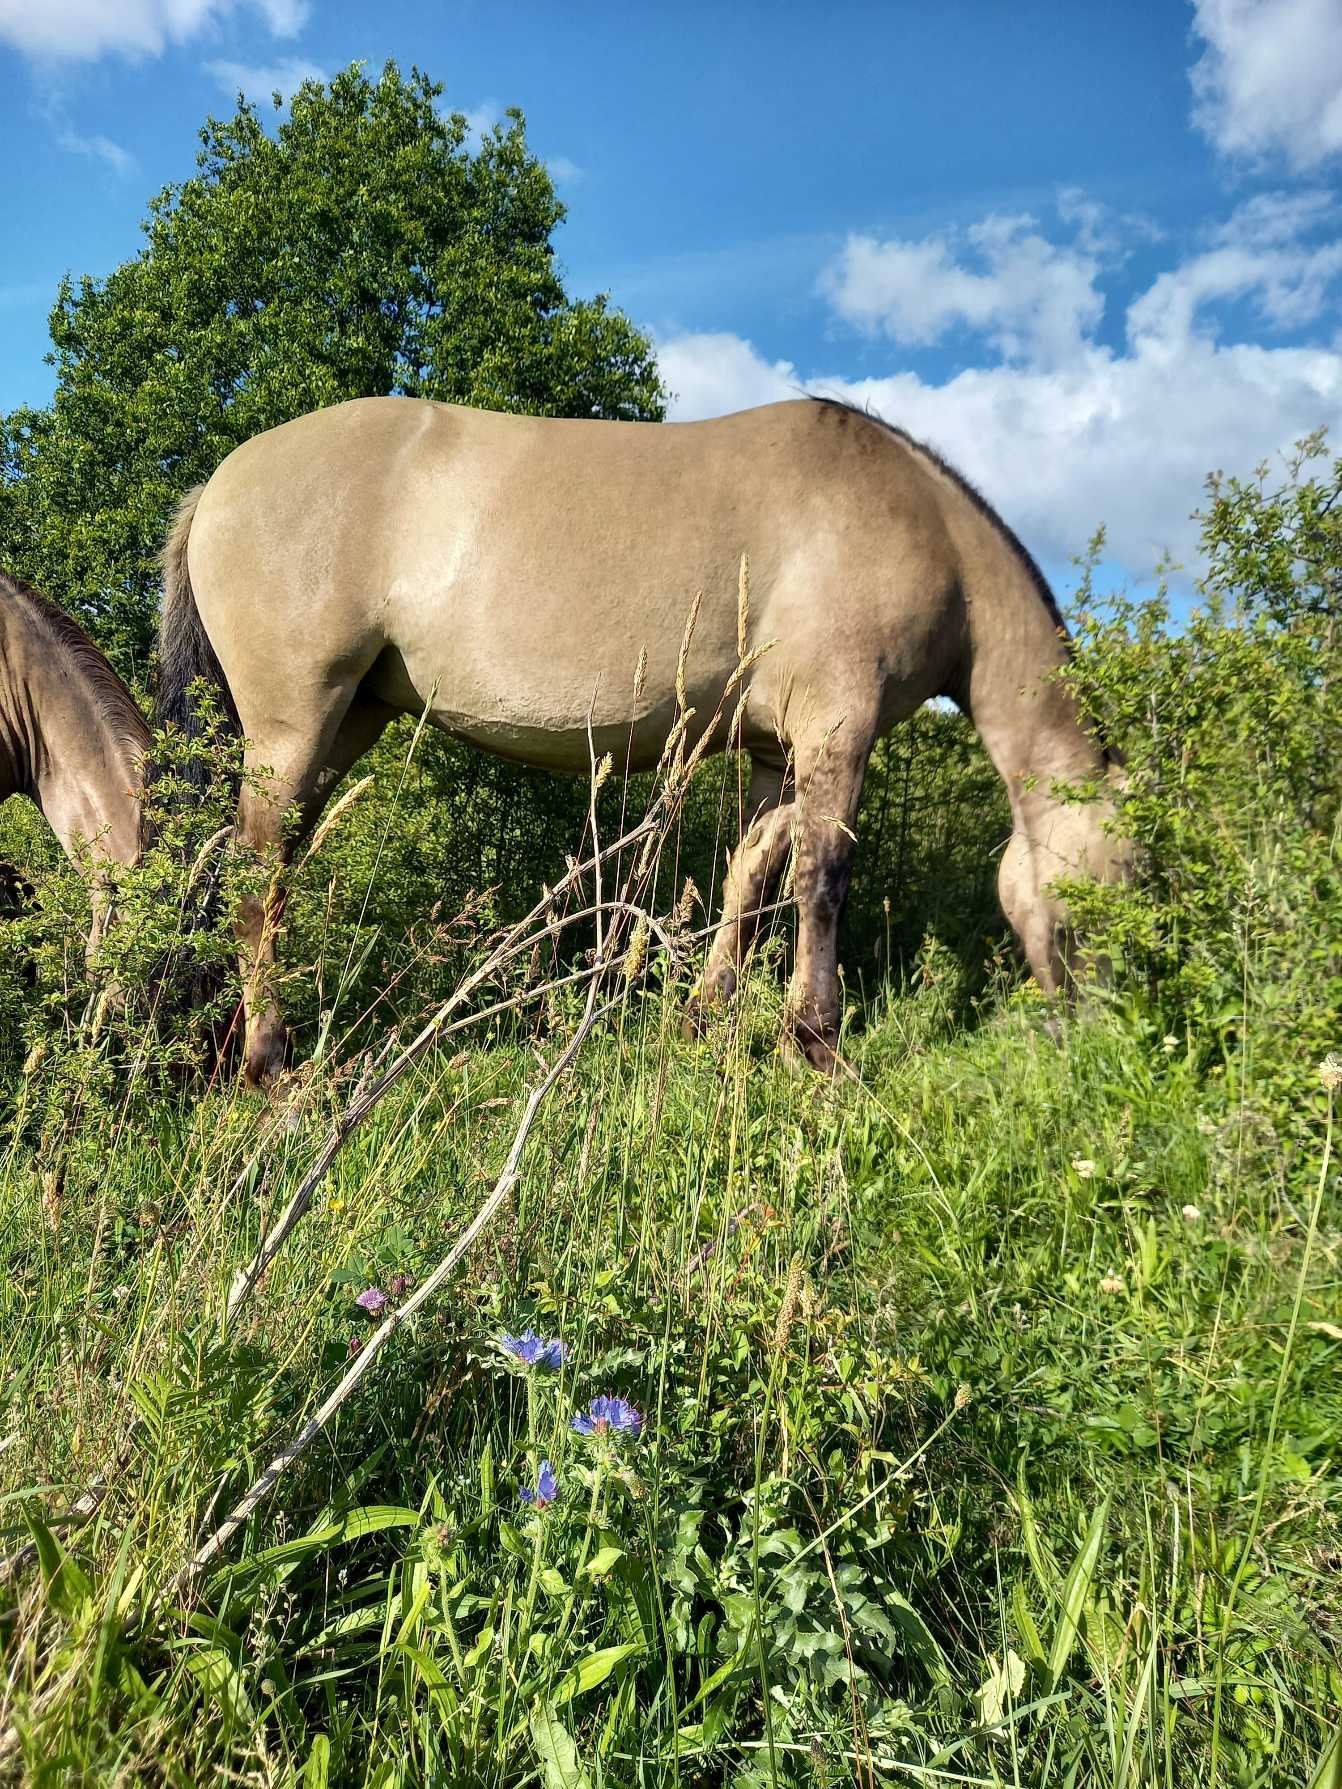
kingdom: Plantae
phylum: Tracheophyta
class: Magnoliopsida
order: Boraginales
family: Boraginaceae
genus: Echium
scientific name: Echium vulgare
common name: Slangehoved
